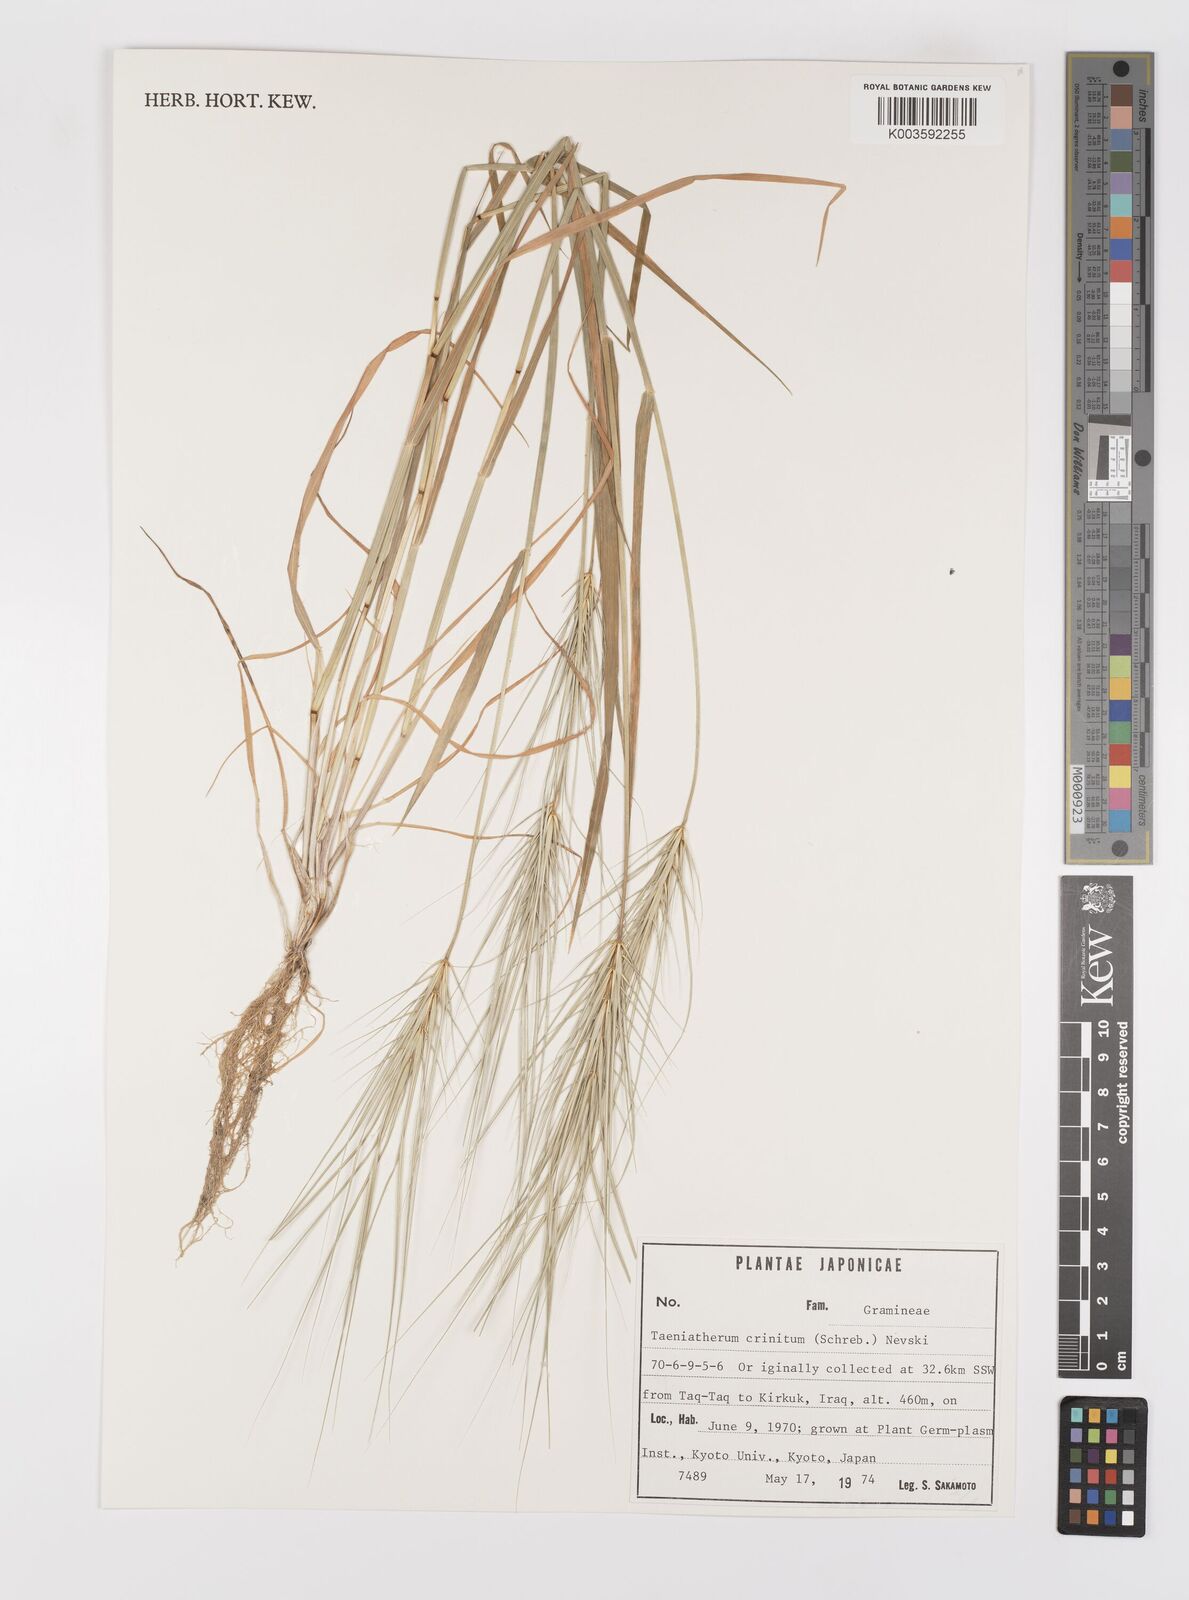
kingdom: Plantae
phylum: Tracheophyta
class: Liliopsida
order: Poales
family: Poaceae
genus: Taeniatherum
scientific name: Taeniatherum caput-medusae
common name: Medusahead
